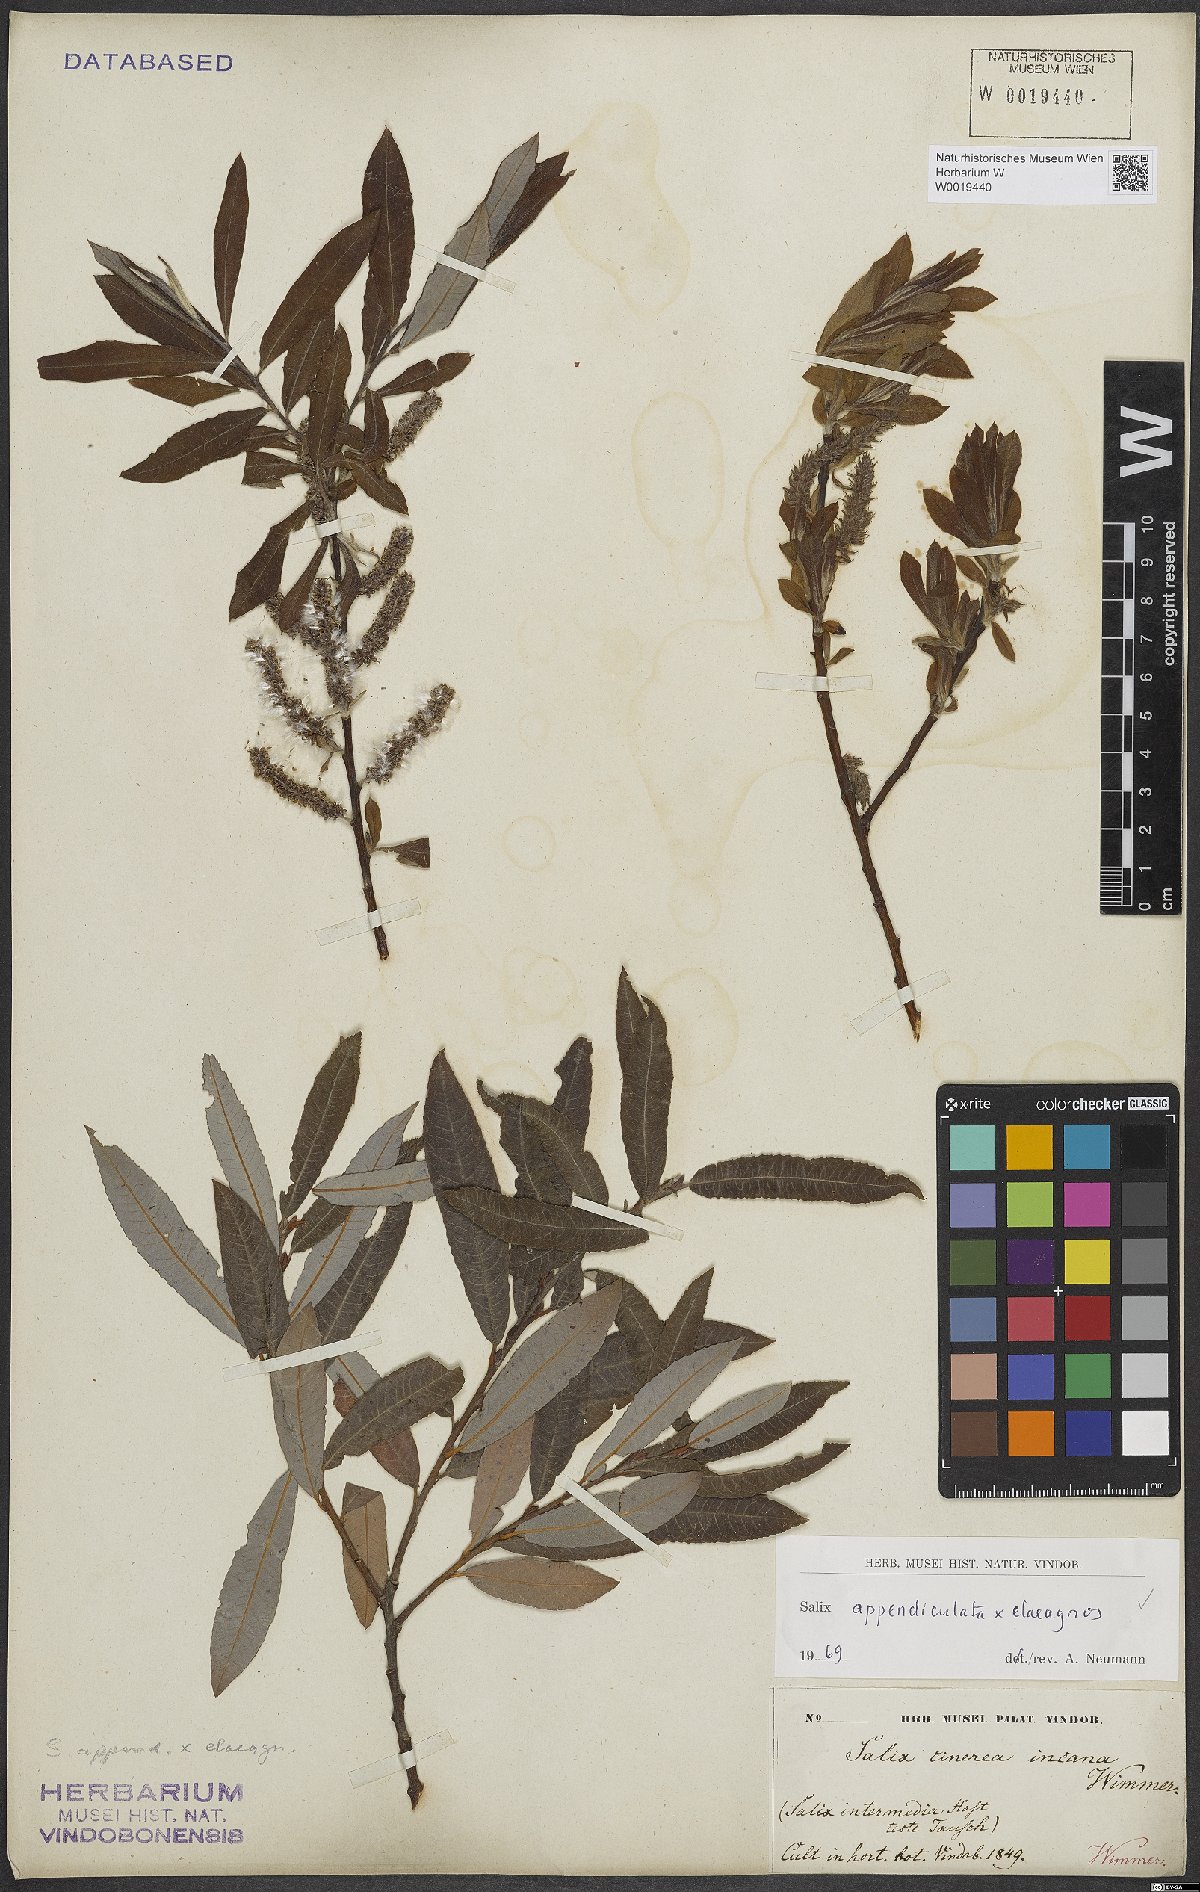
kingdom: Plantae
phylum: Tracheophyta
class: Magnoliopsida
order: Malpighiales
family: Salicaceae
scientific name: Salicaceae
